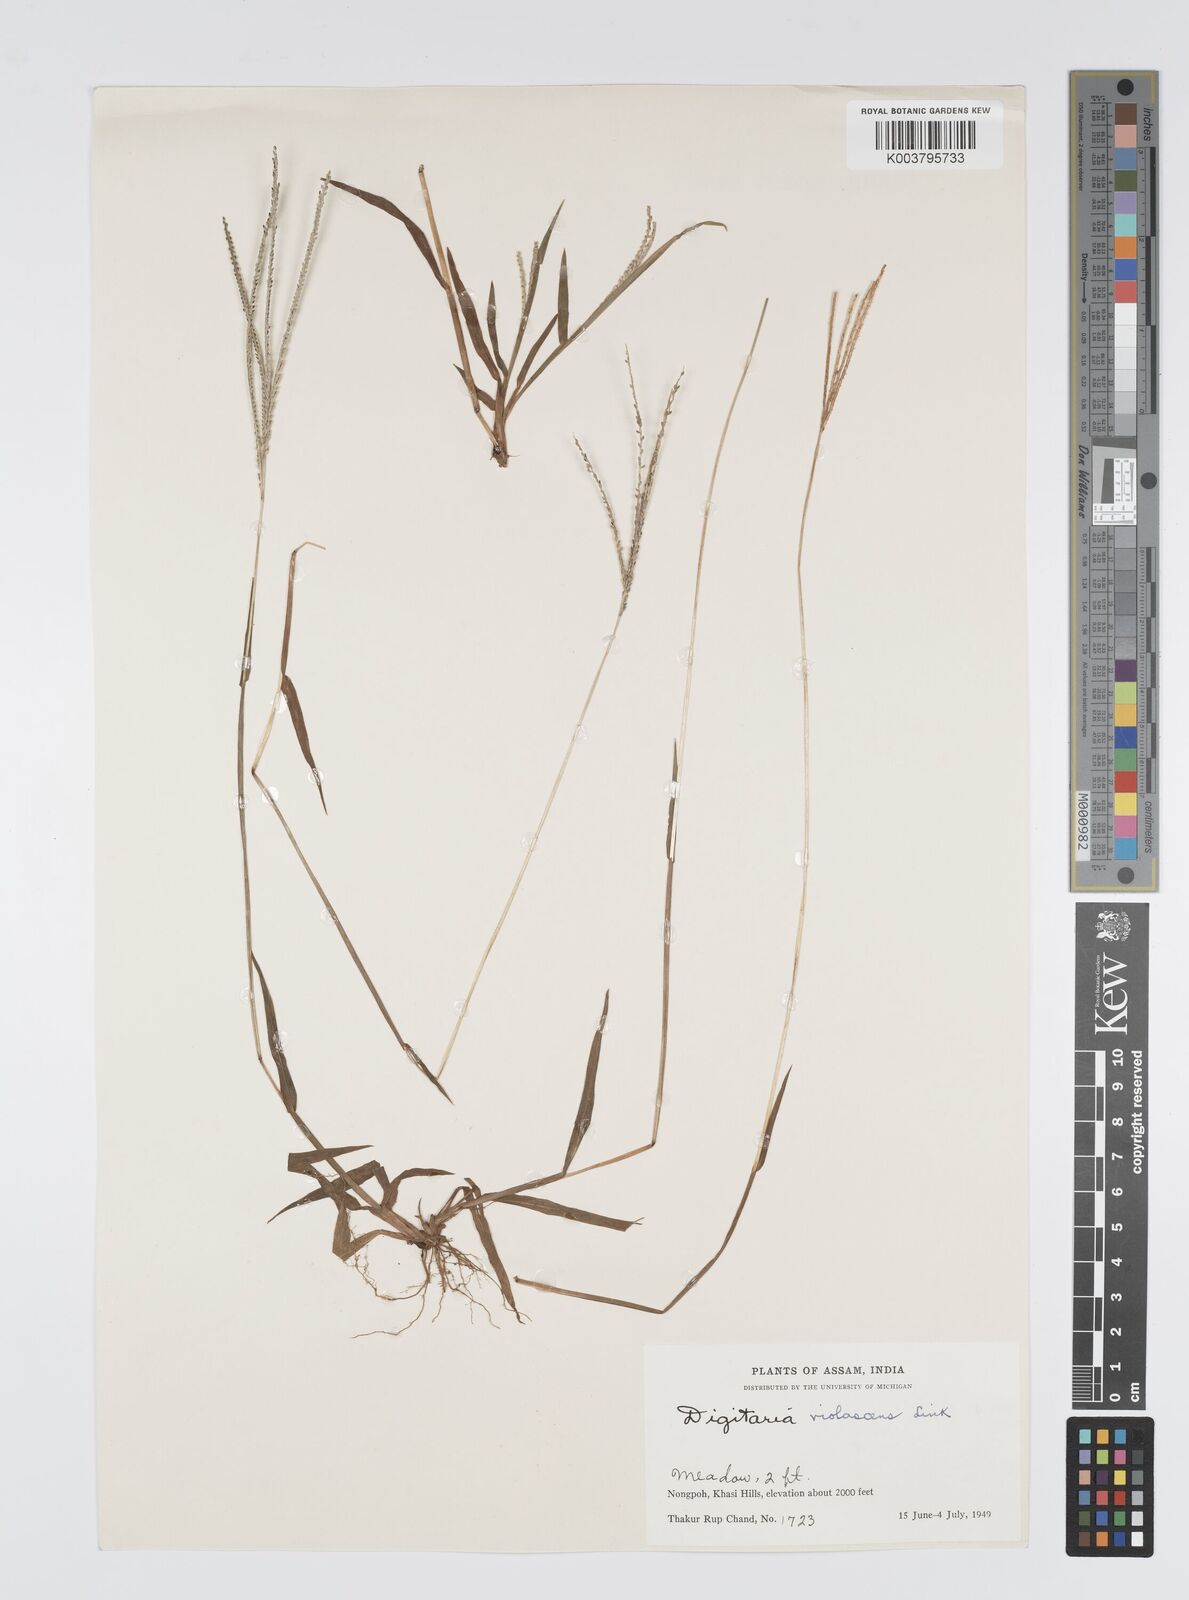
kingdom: Plantae
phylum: Tracheophyta
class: Liliopsida
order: Poales
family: Poaceae
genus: Digitaria
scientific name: Digitaria violascens
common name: Violet crabgrass
